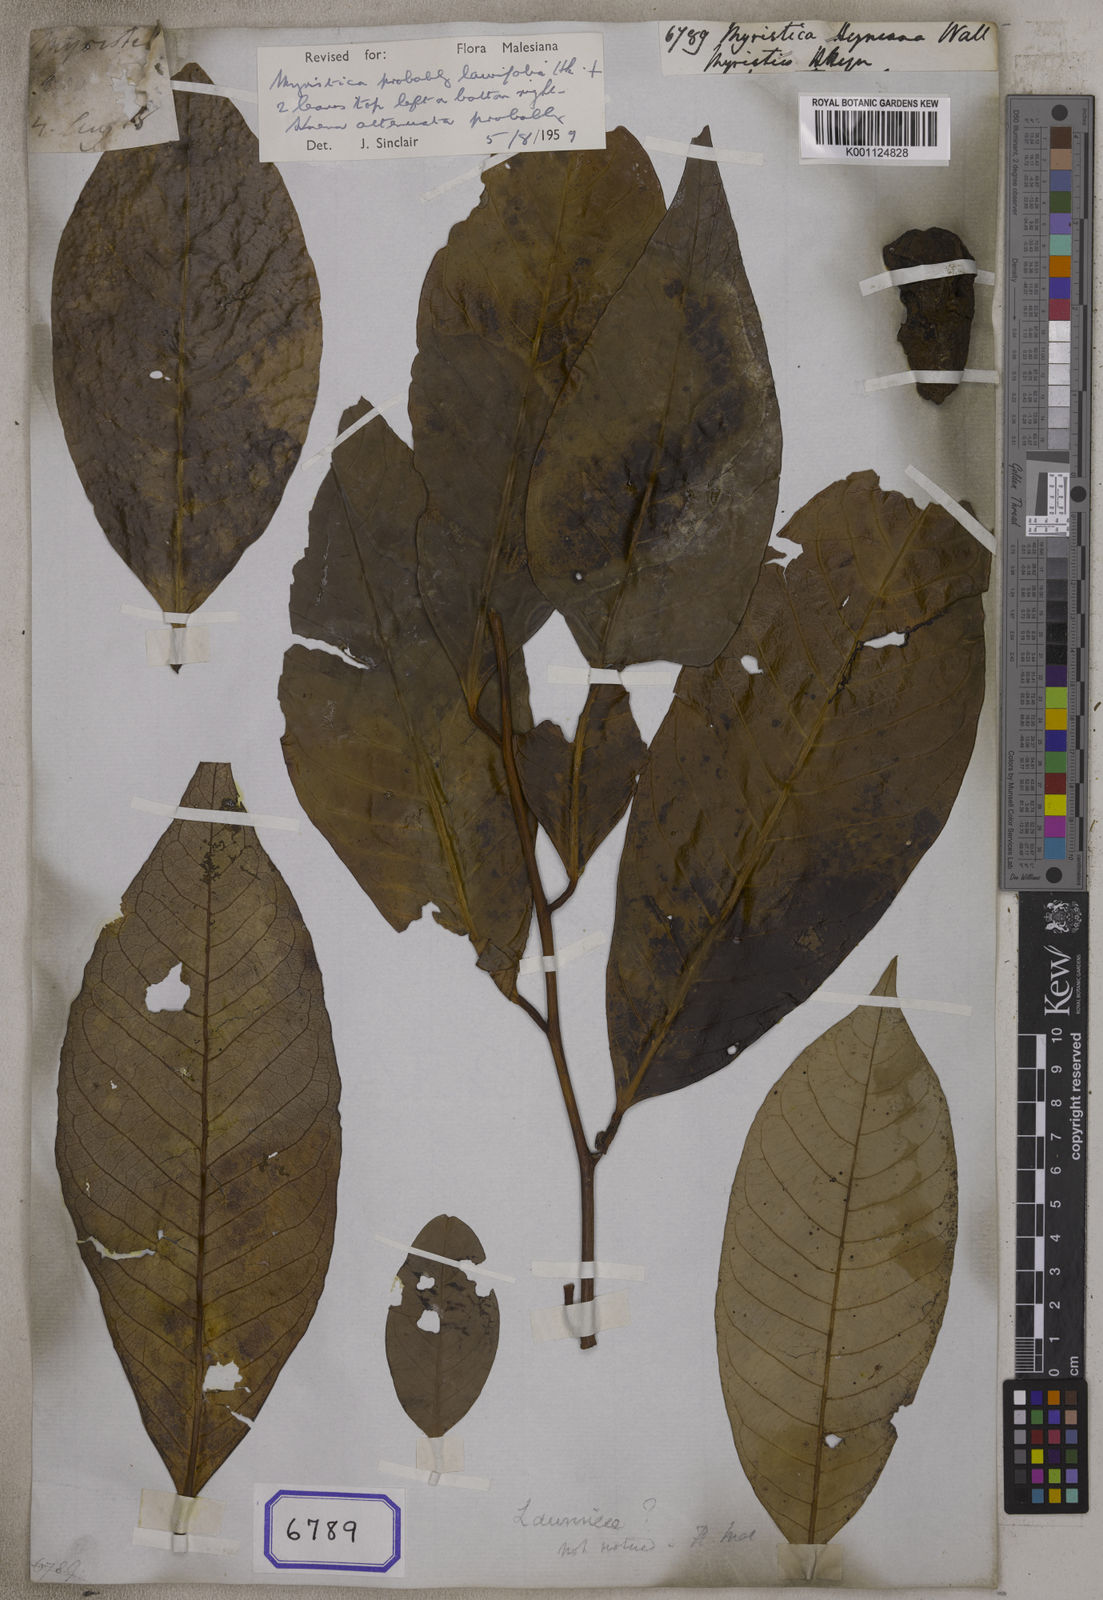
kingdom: Plantae
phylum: Tracheophyta
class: Magnoliopsida
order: Magnoliales
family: Myristicaceae
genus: Myristica
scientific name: Myristica magnifica
